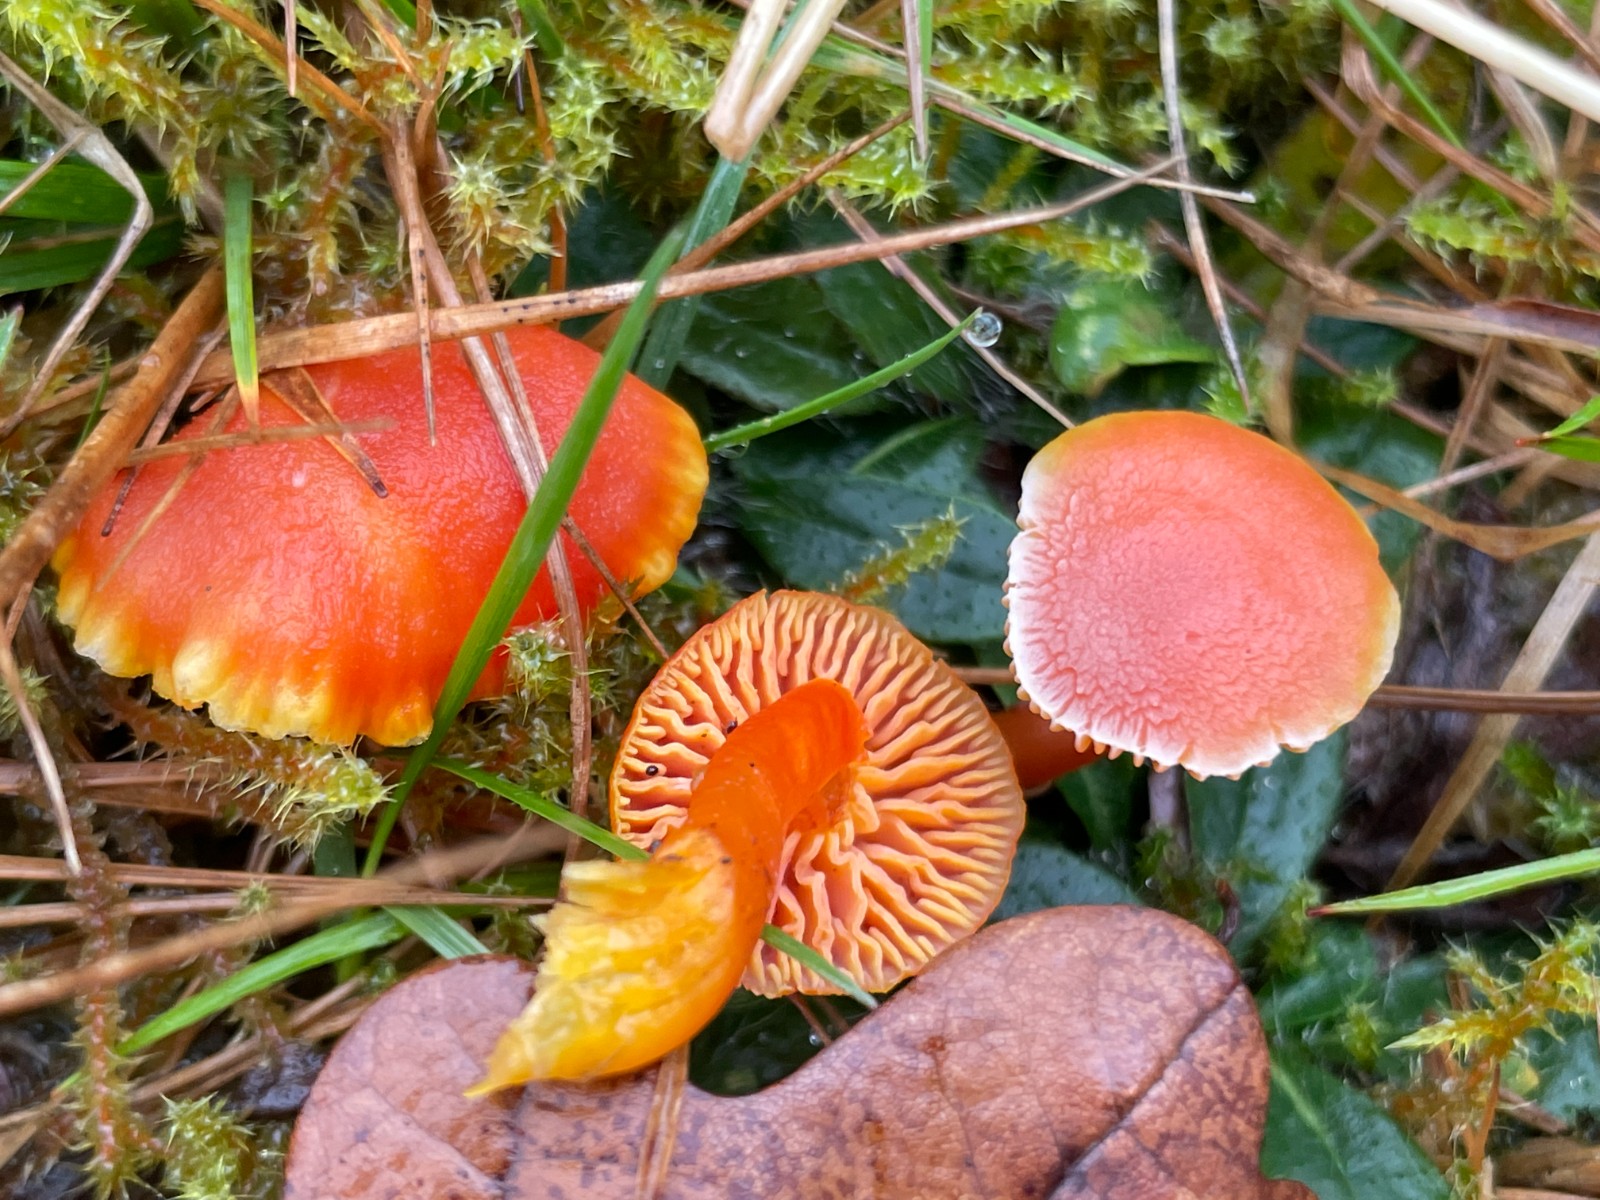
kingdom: Fungi
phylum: Basidiomycota
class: Agaricomycetes
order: Agaricales
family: Hygrophoraceae
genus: Hygrocybe
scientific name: Hygrocybe miniata
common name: mønje-vokshat
